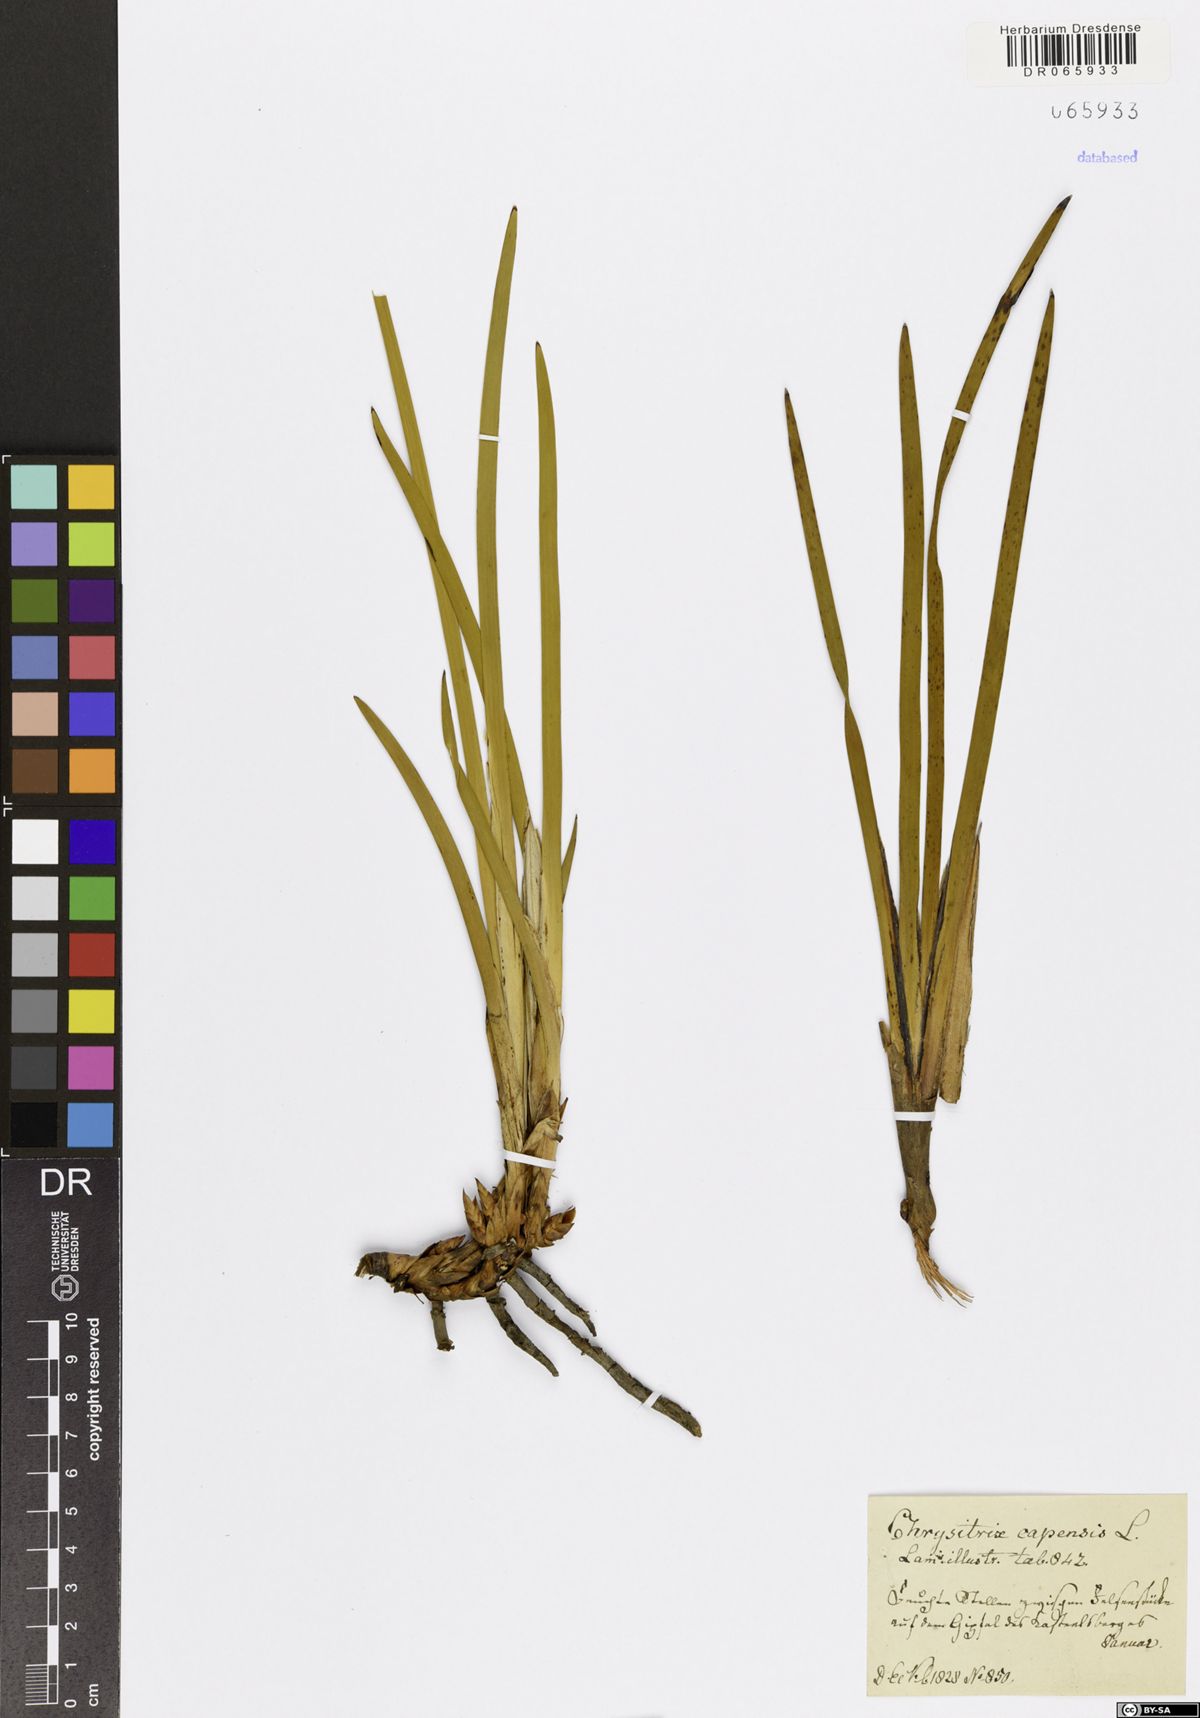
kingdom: Plantae
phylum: Tracheophyta
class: Liliopsida
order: Poales
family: Cyperaceae
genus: Chrysitrix
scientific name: Chrysitrix capensis
